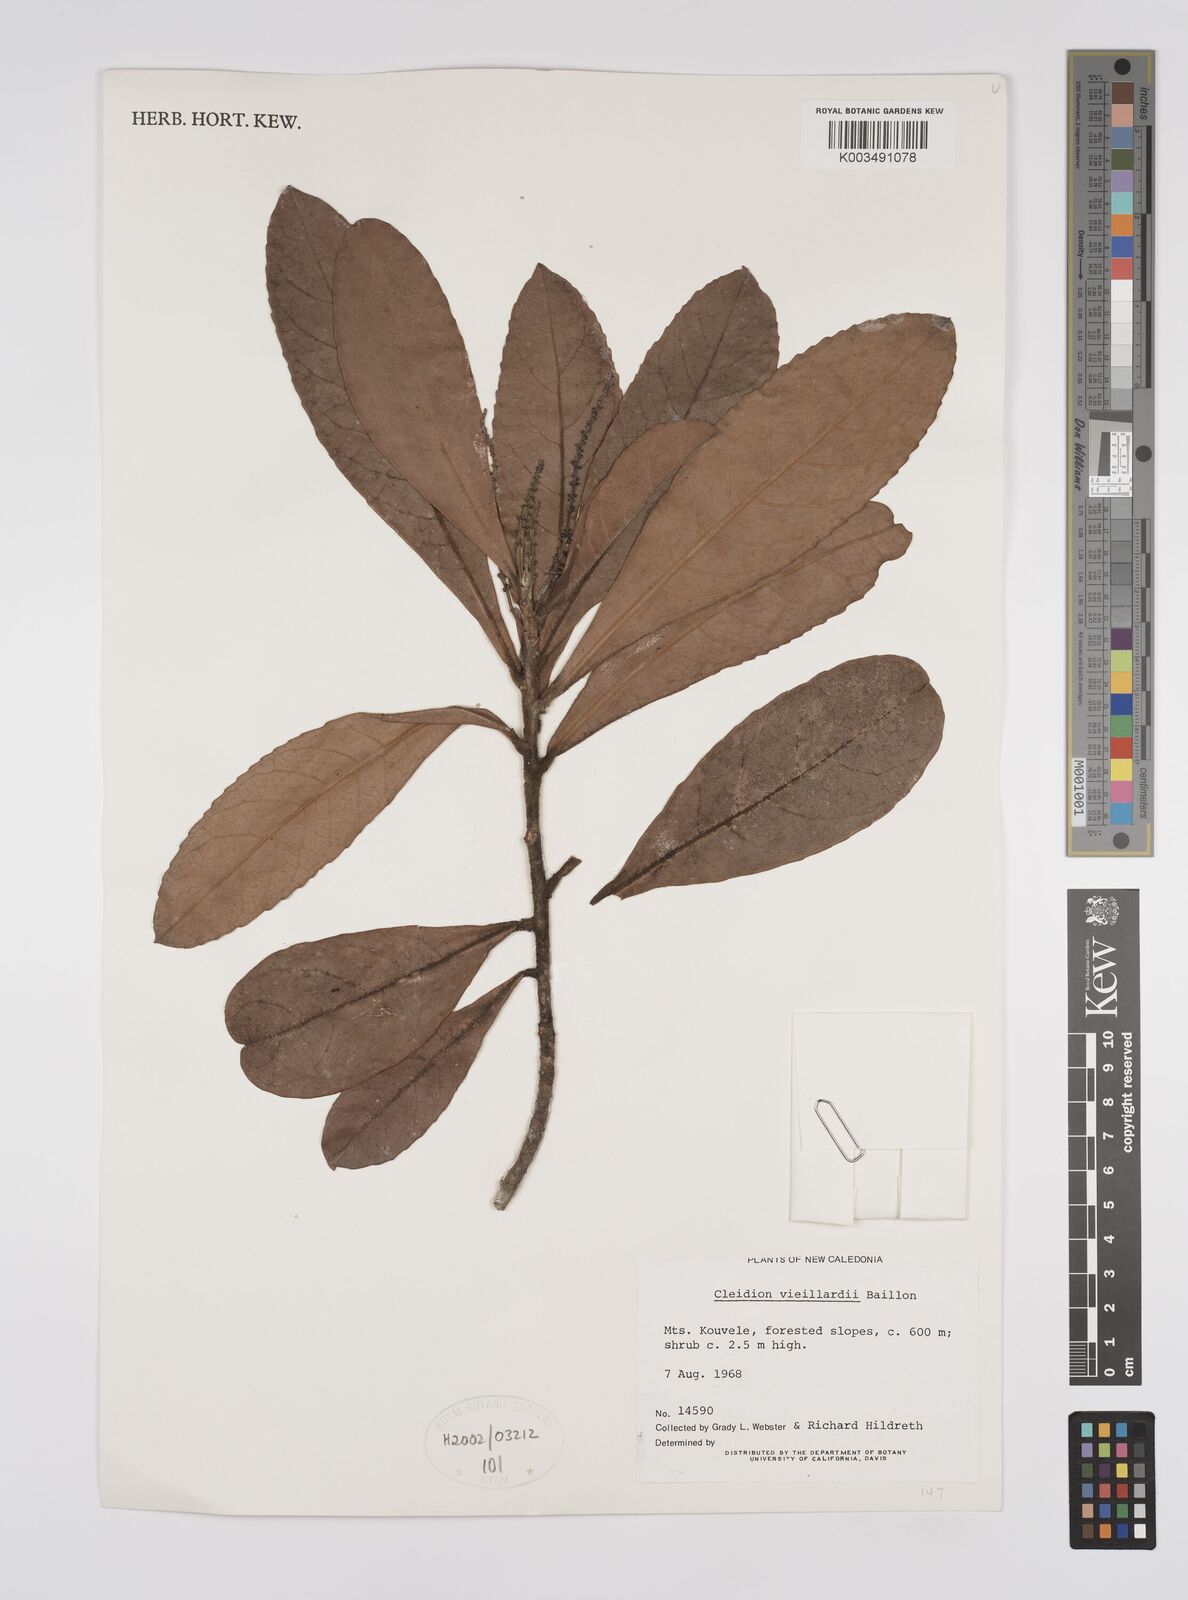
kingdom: Plantae
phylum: Tracheophyta
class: Magnoliopsida
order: Malpighiales
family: Euphorbiaceae
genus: Cleidion
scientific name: Cleidion vieillardii
